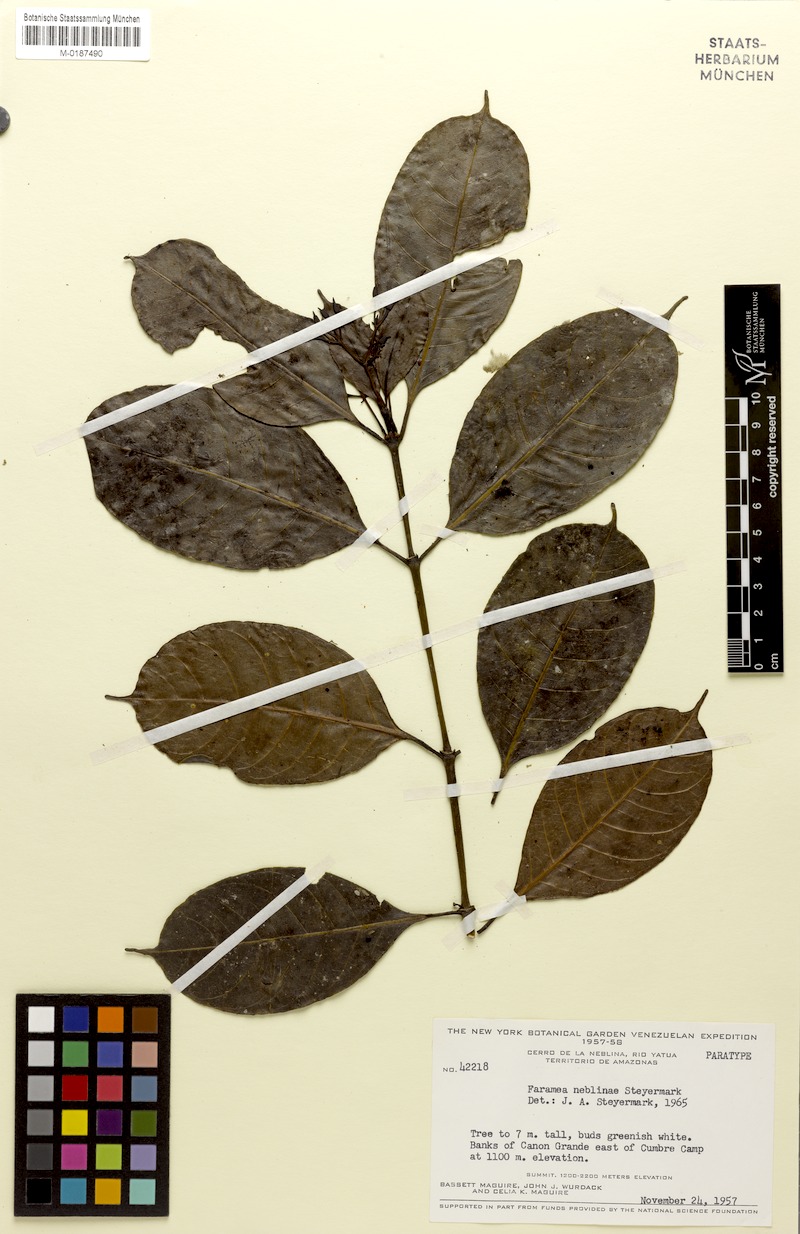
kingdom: Plantae
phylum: Tracheophyta
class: Magnoliopsida
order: Gentianales
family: Rubiaceae
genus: Faramea
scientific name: Faramea neblinae
